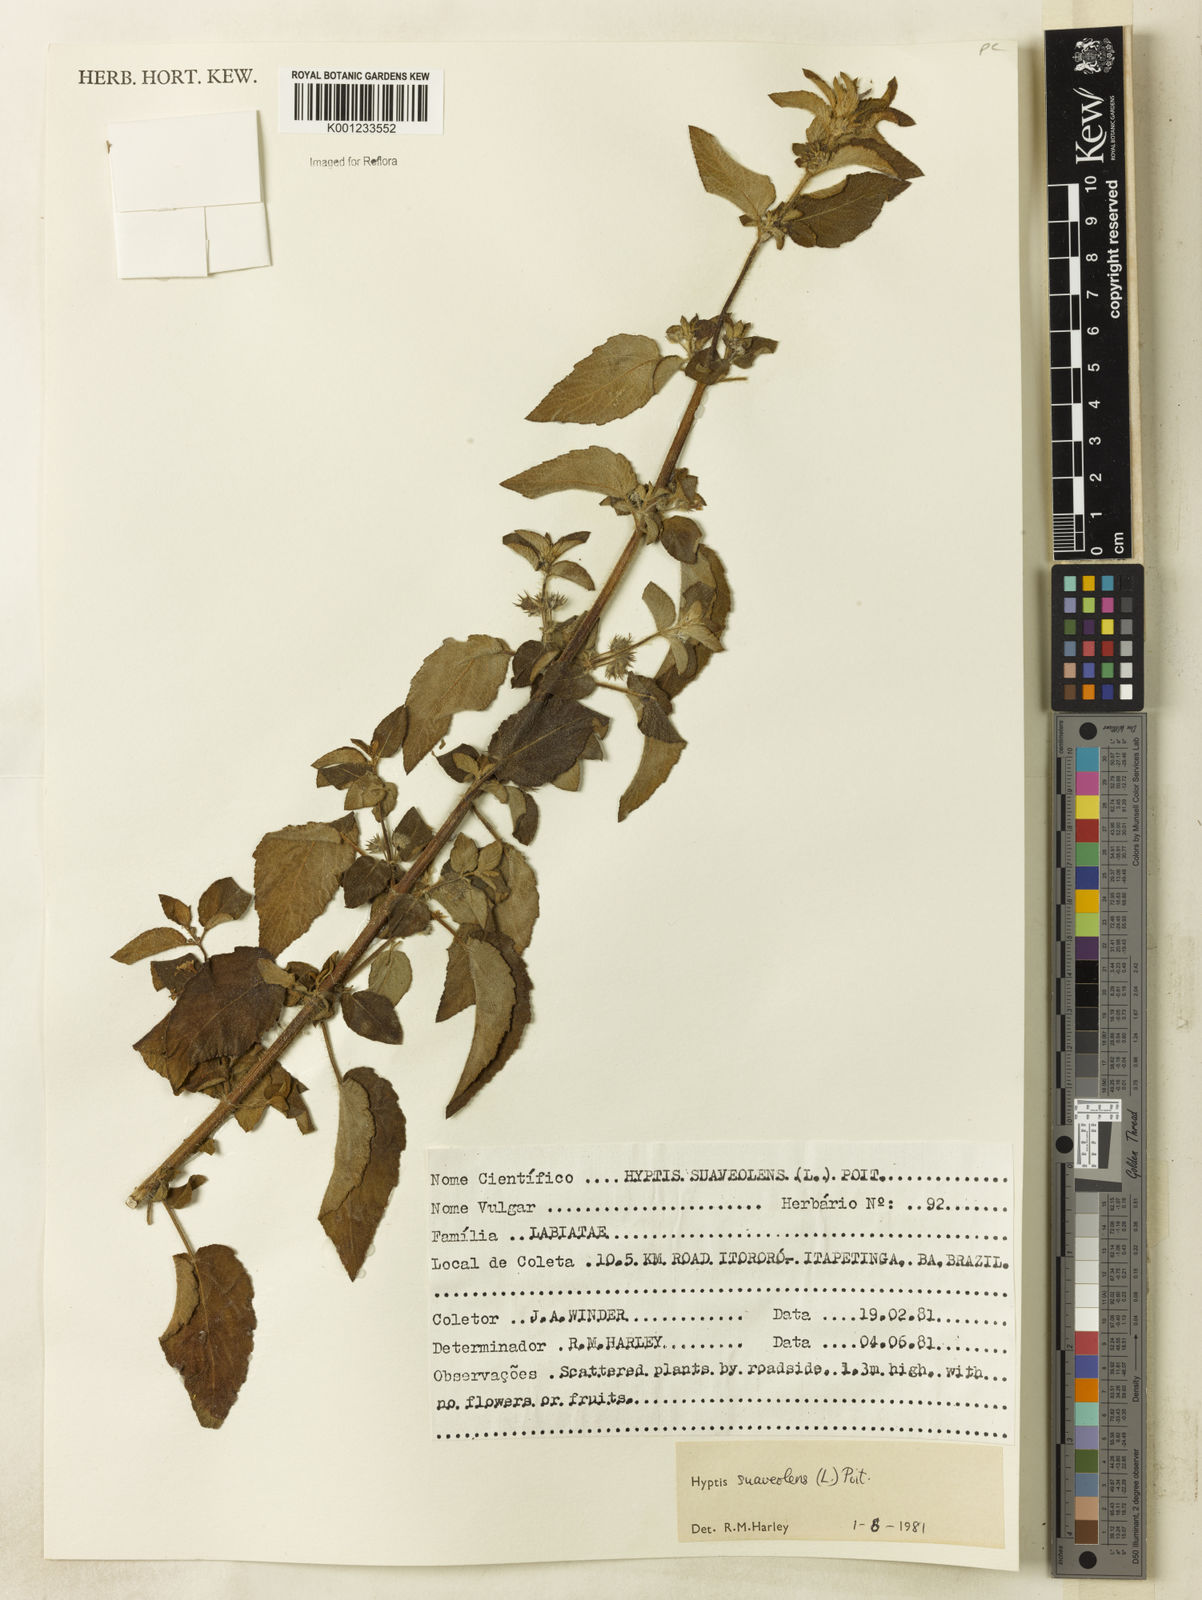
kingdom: Plantae
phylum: Tracheophyta
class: Magnoliopsida
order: Lamiales
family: Lamiaceae
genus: Mesosphaerum
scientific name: Mesosphaerum suaveolens
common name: Pignut
